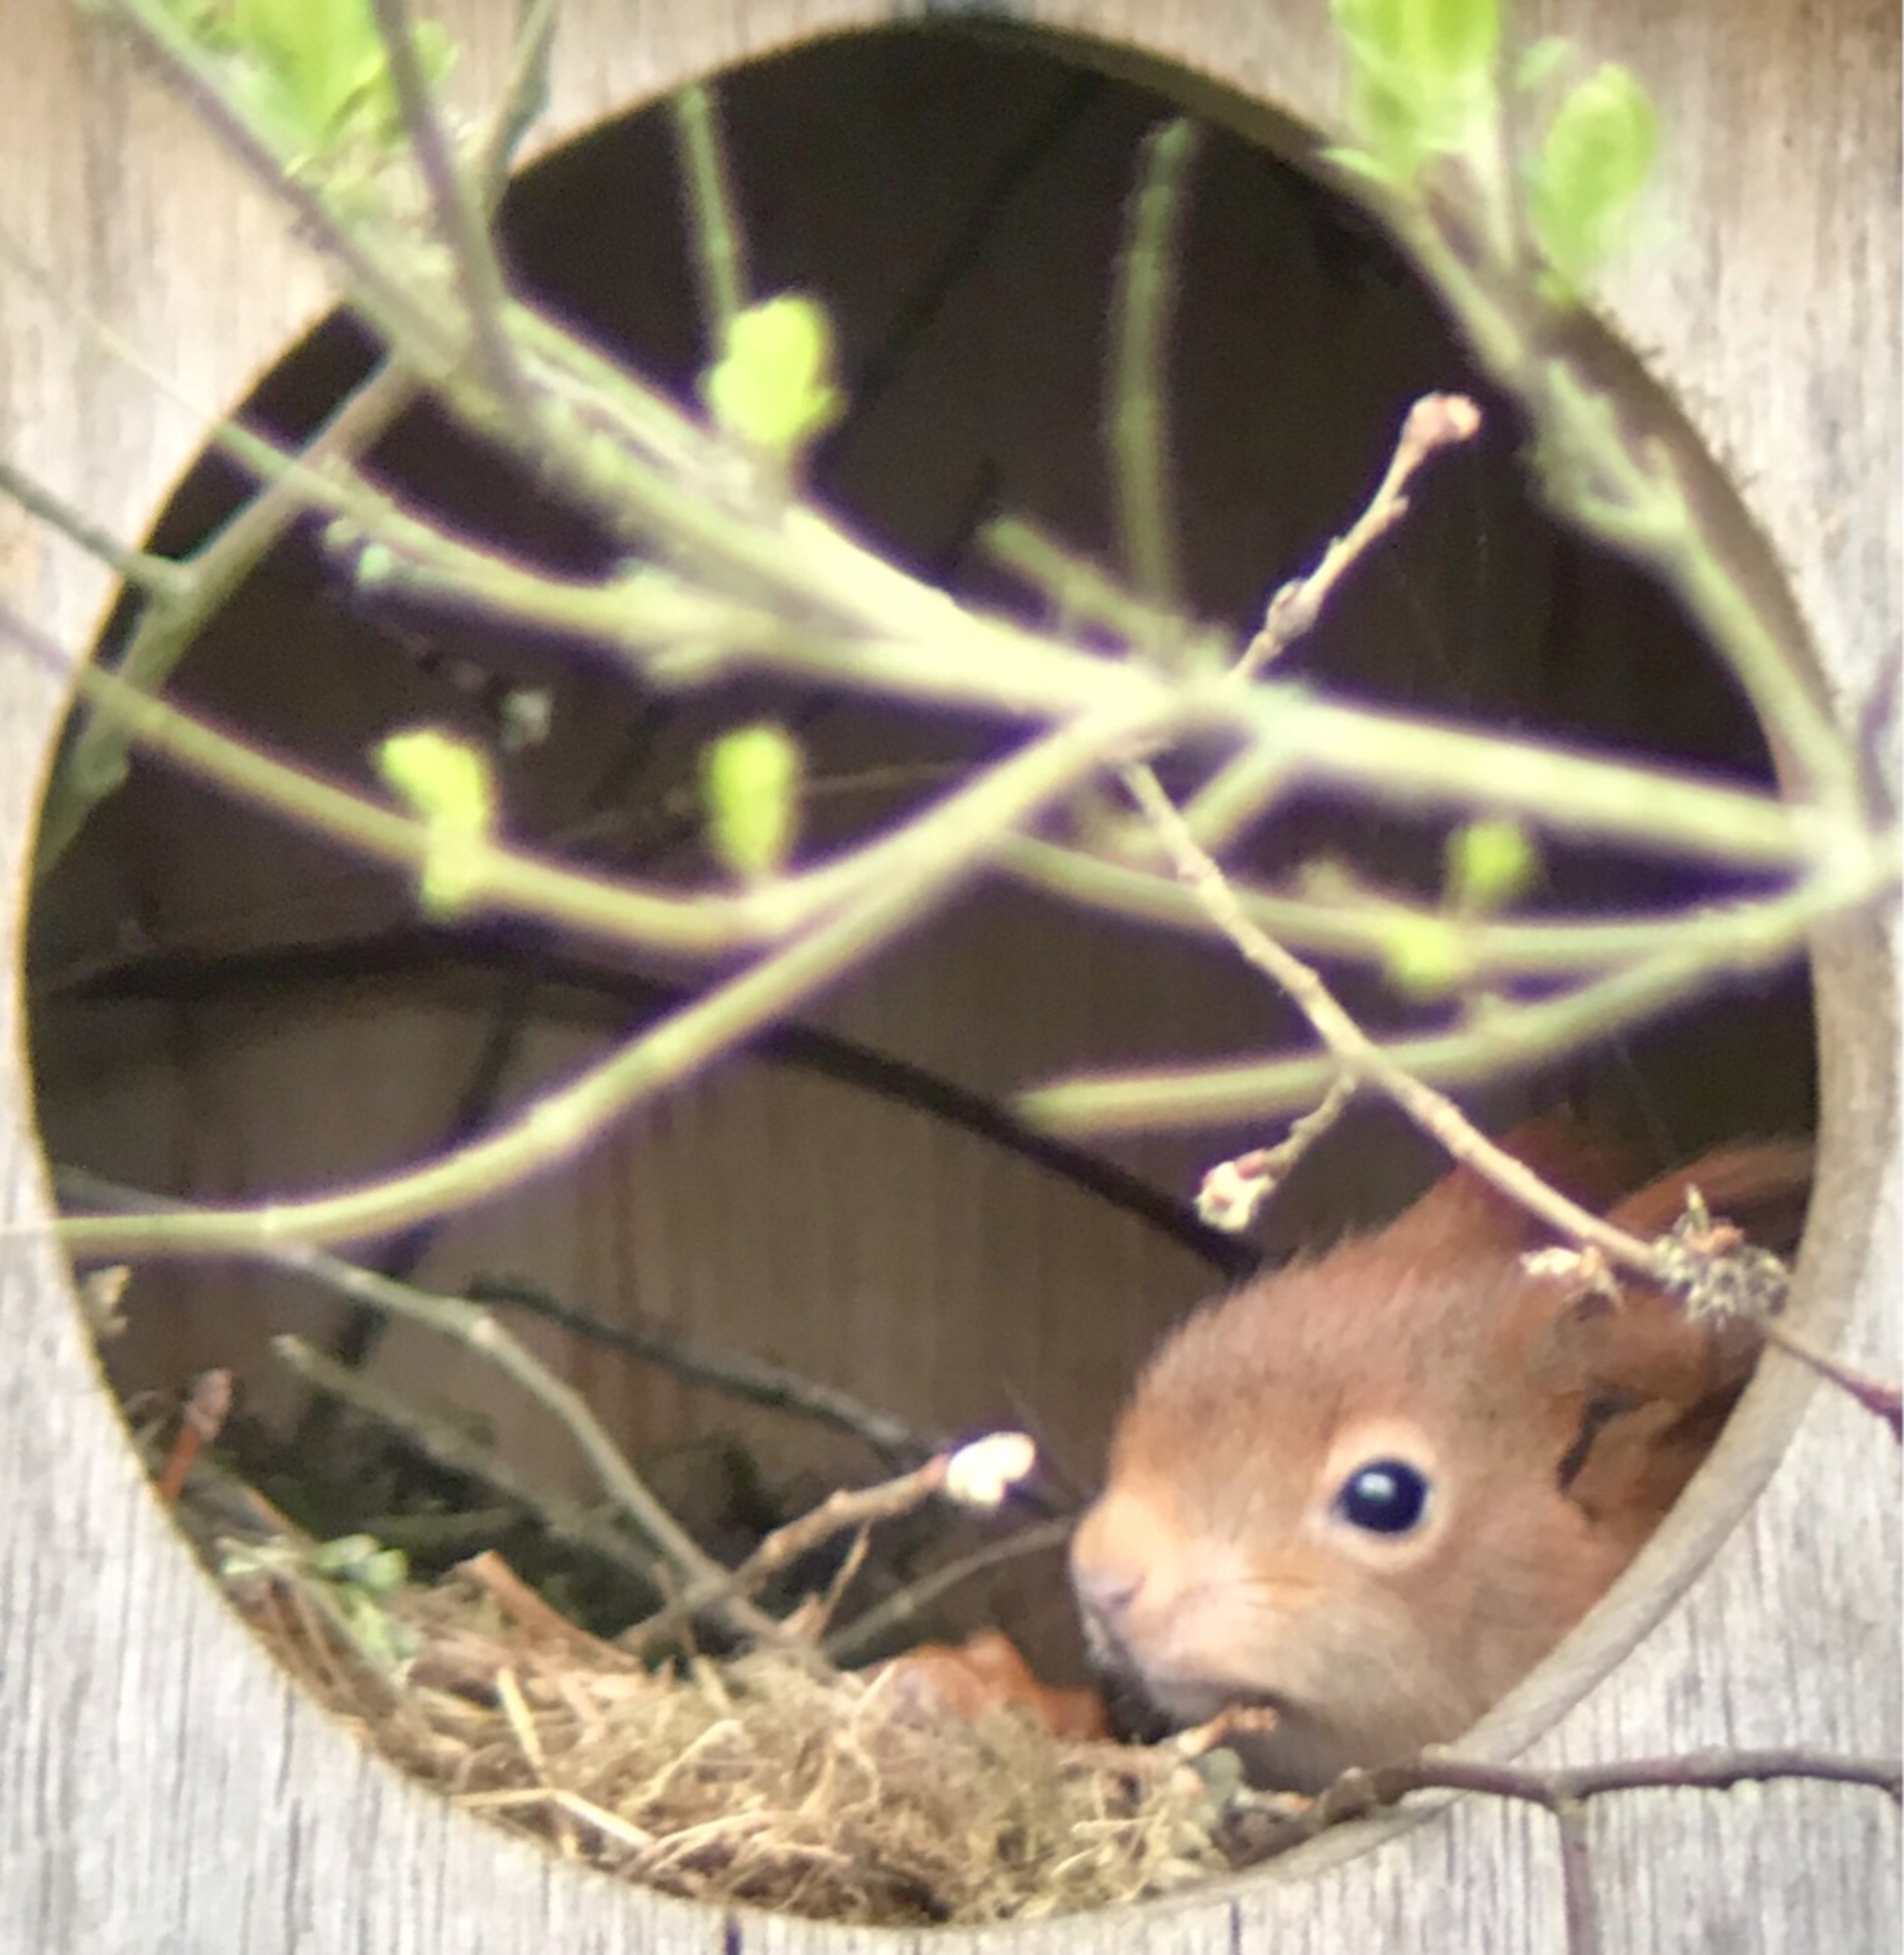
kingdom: Animalia
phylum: Chordata
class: Mammalia
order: Rodentia
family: Sciuridae
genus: Sciurus
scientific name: Sciurus vulgaris
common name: Egern
